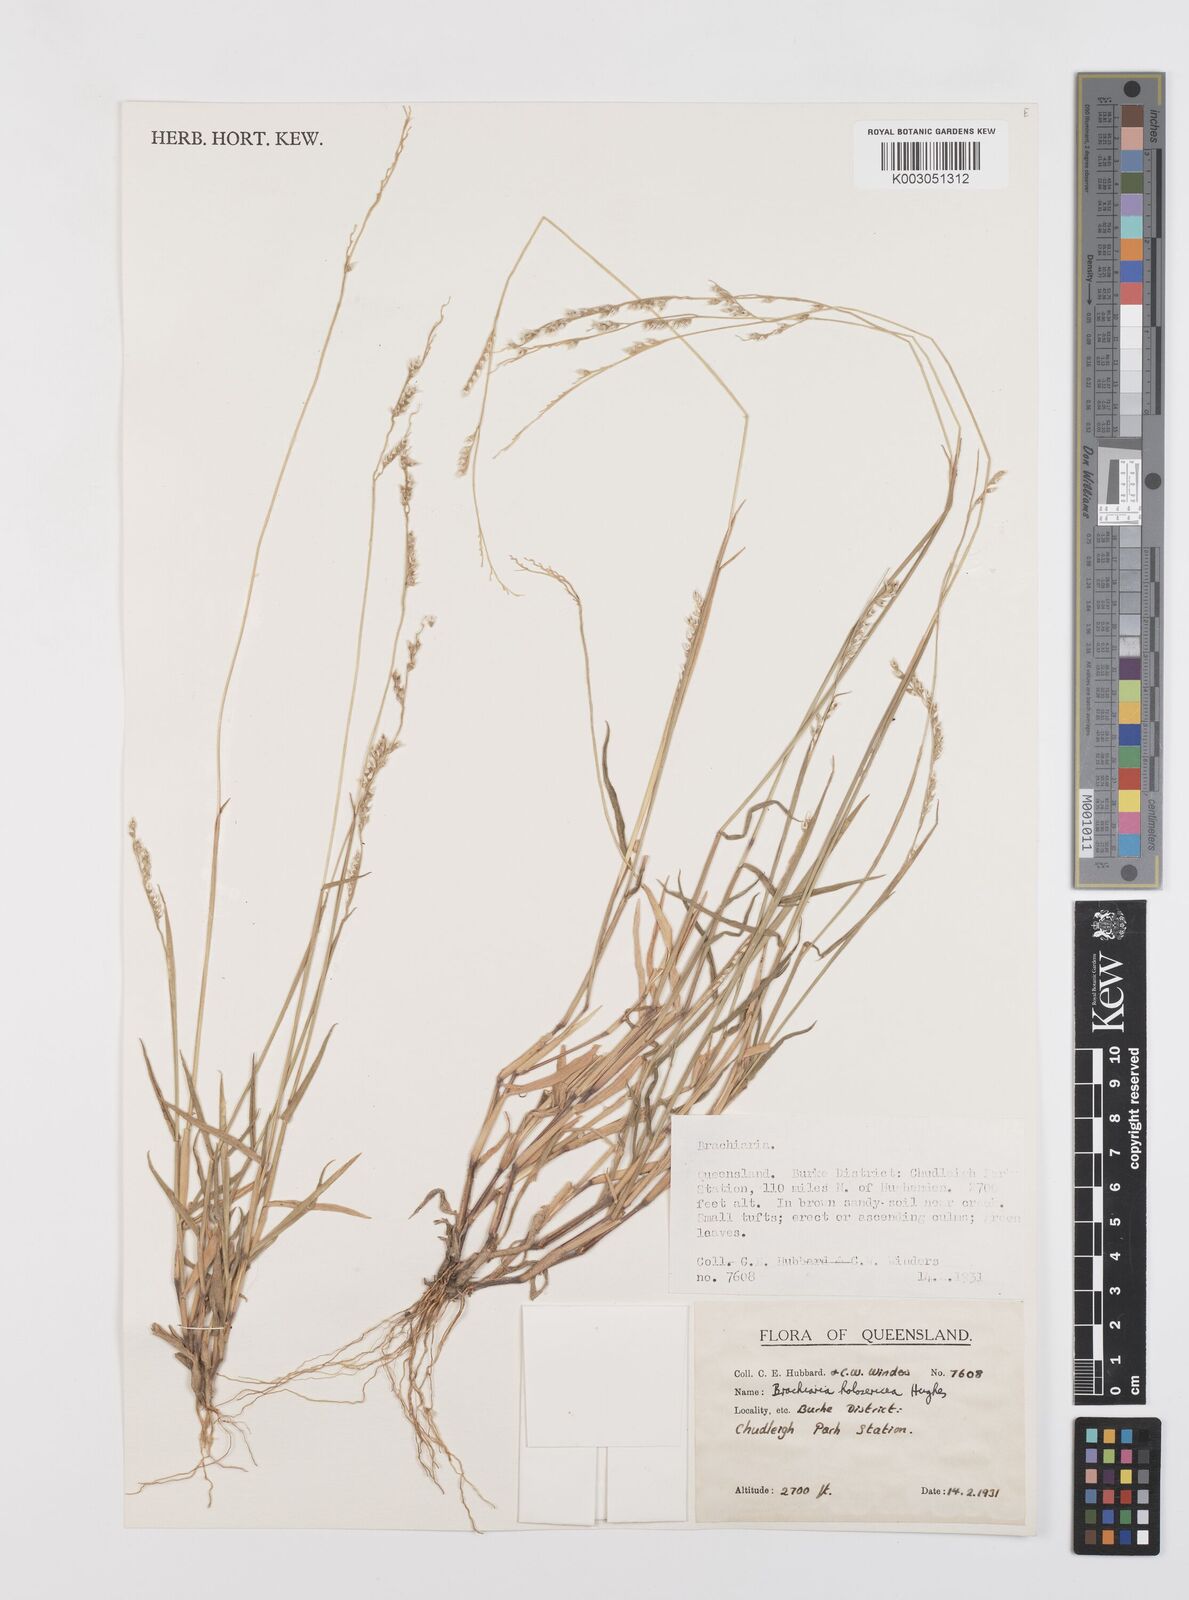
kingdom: Plantae
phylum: Tracheophyta
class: Liliopsida
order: Poales
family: Poaceae
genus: Urochloa
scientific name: Urochloa holosericea
